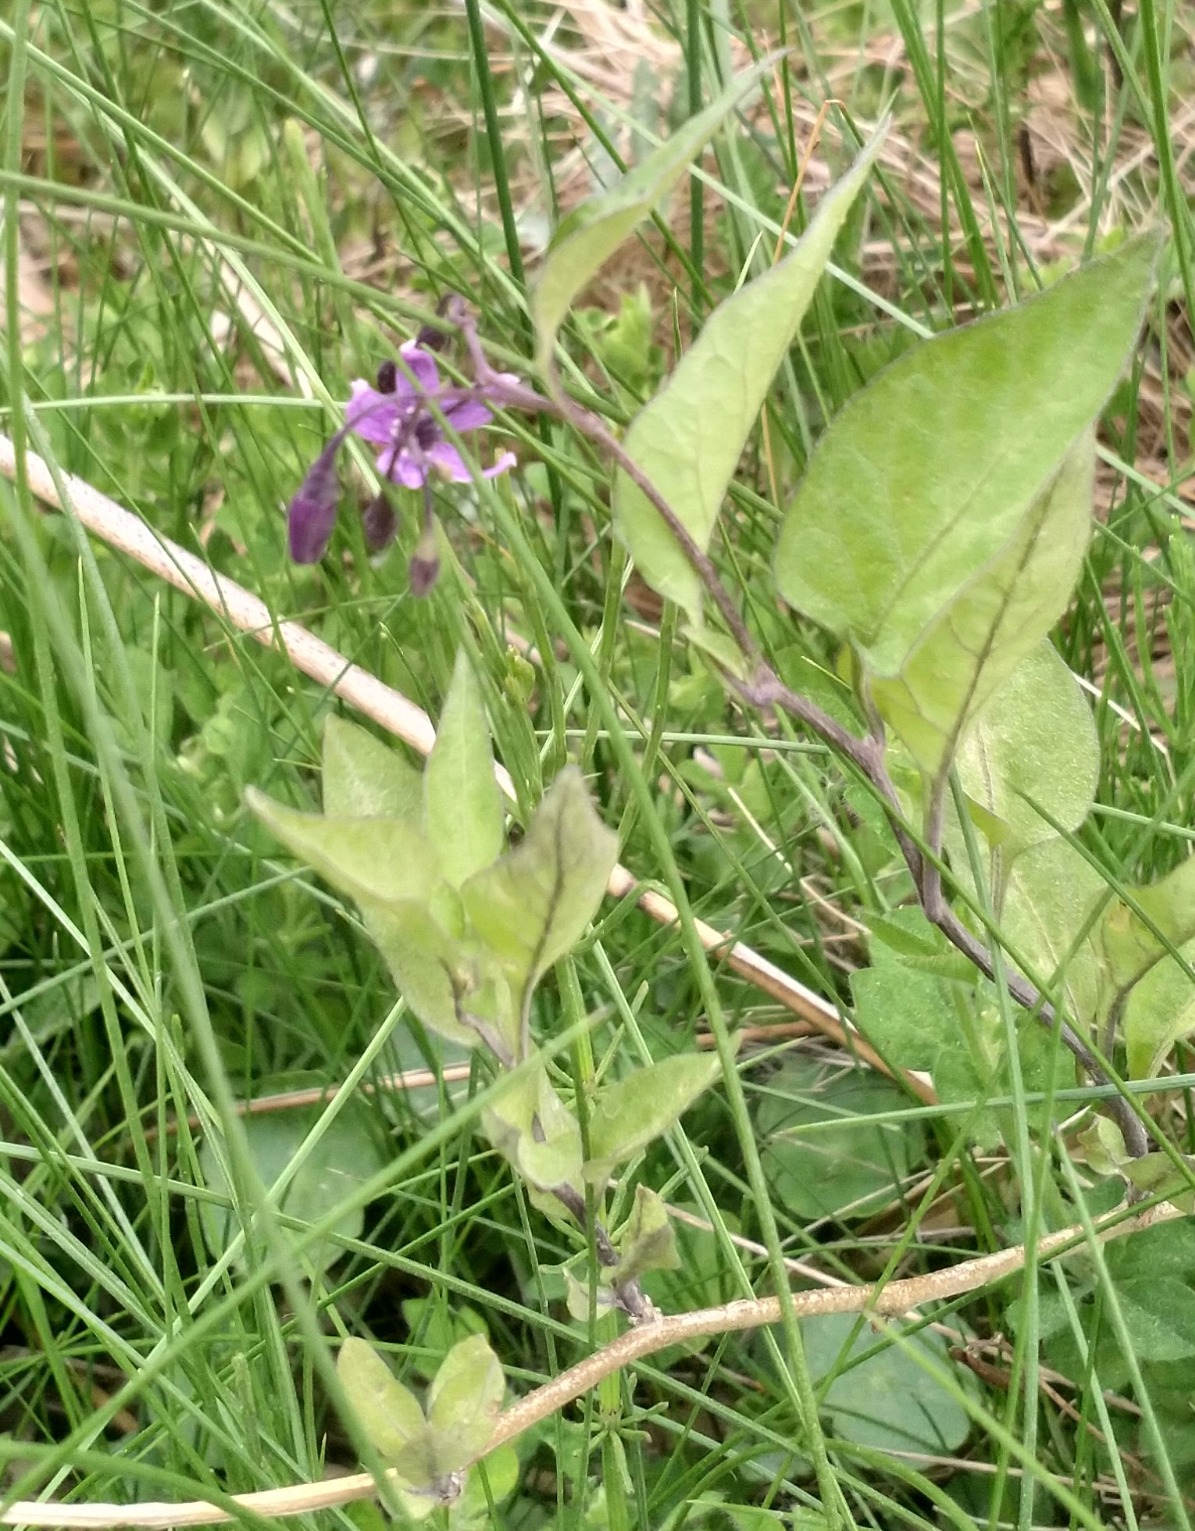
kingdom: Plantae
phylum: Tracheophyta
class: Magnoliopsida
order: Solanales
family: Solanaceae
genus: Solanum
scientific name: Solanum dulcamara
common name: Bittersød natskygge
